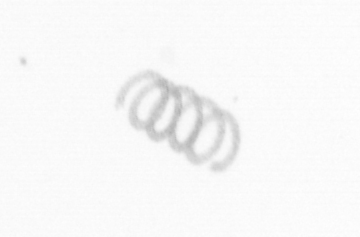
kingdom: Chromista
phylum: Ochrophyta
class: Bacillariophyceae
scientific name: Bacillariophyceae
